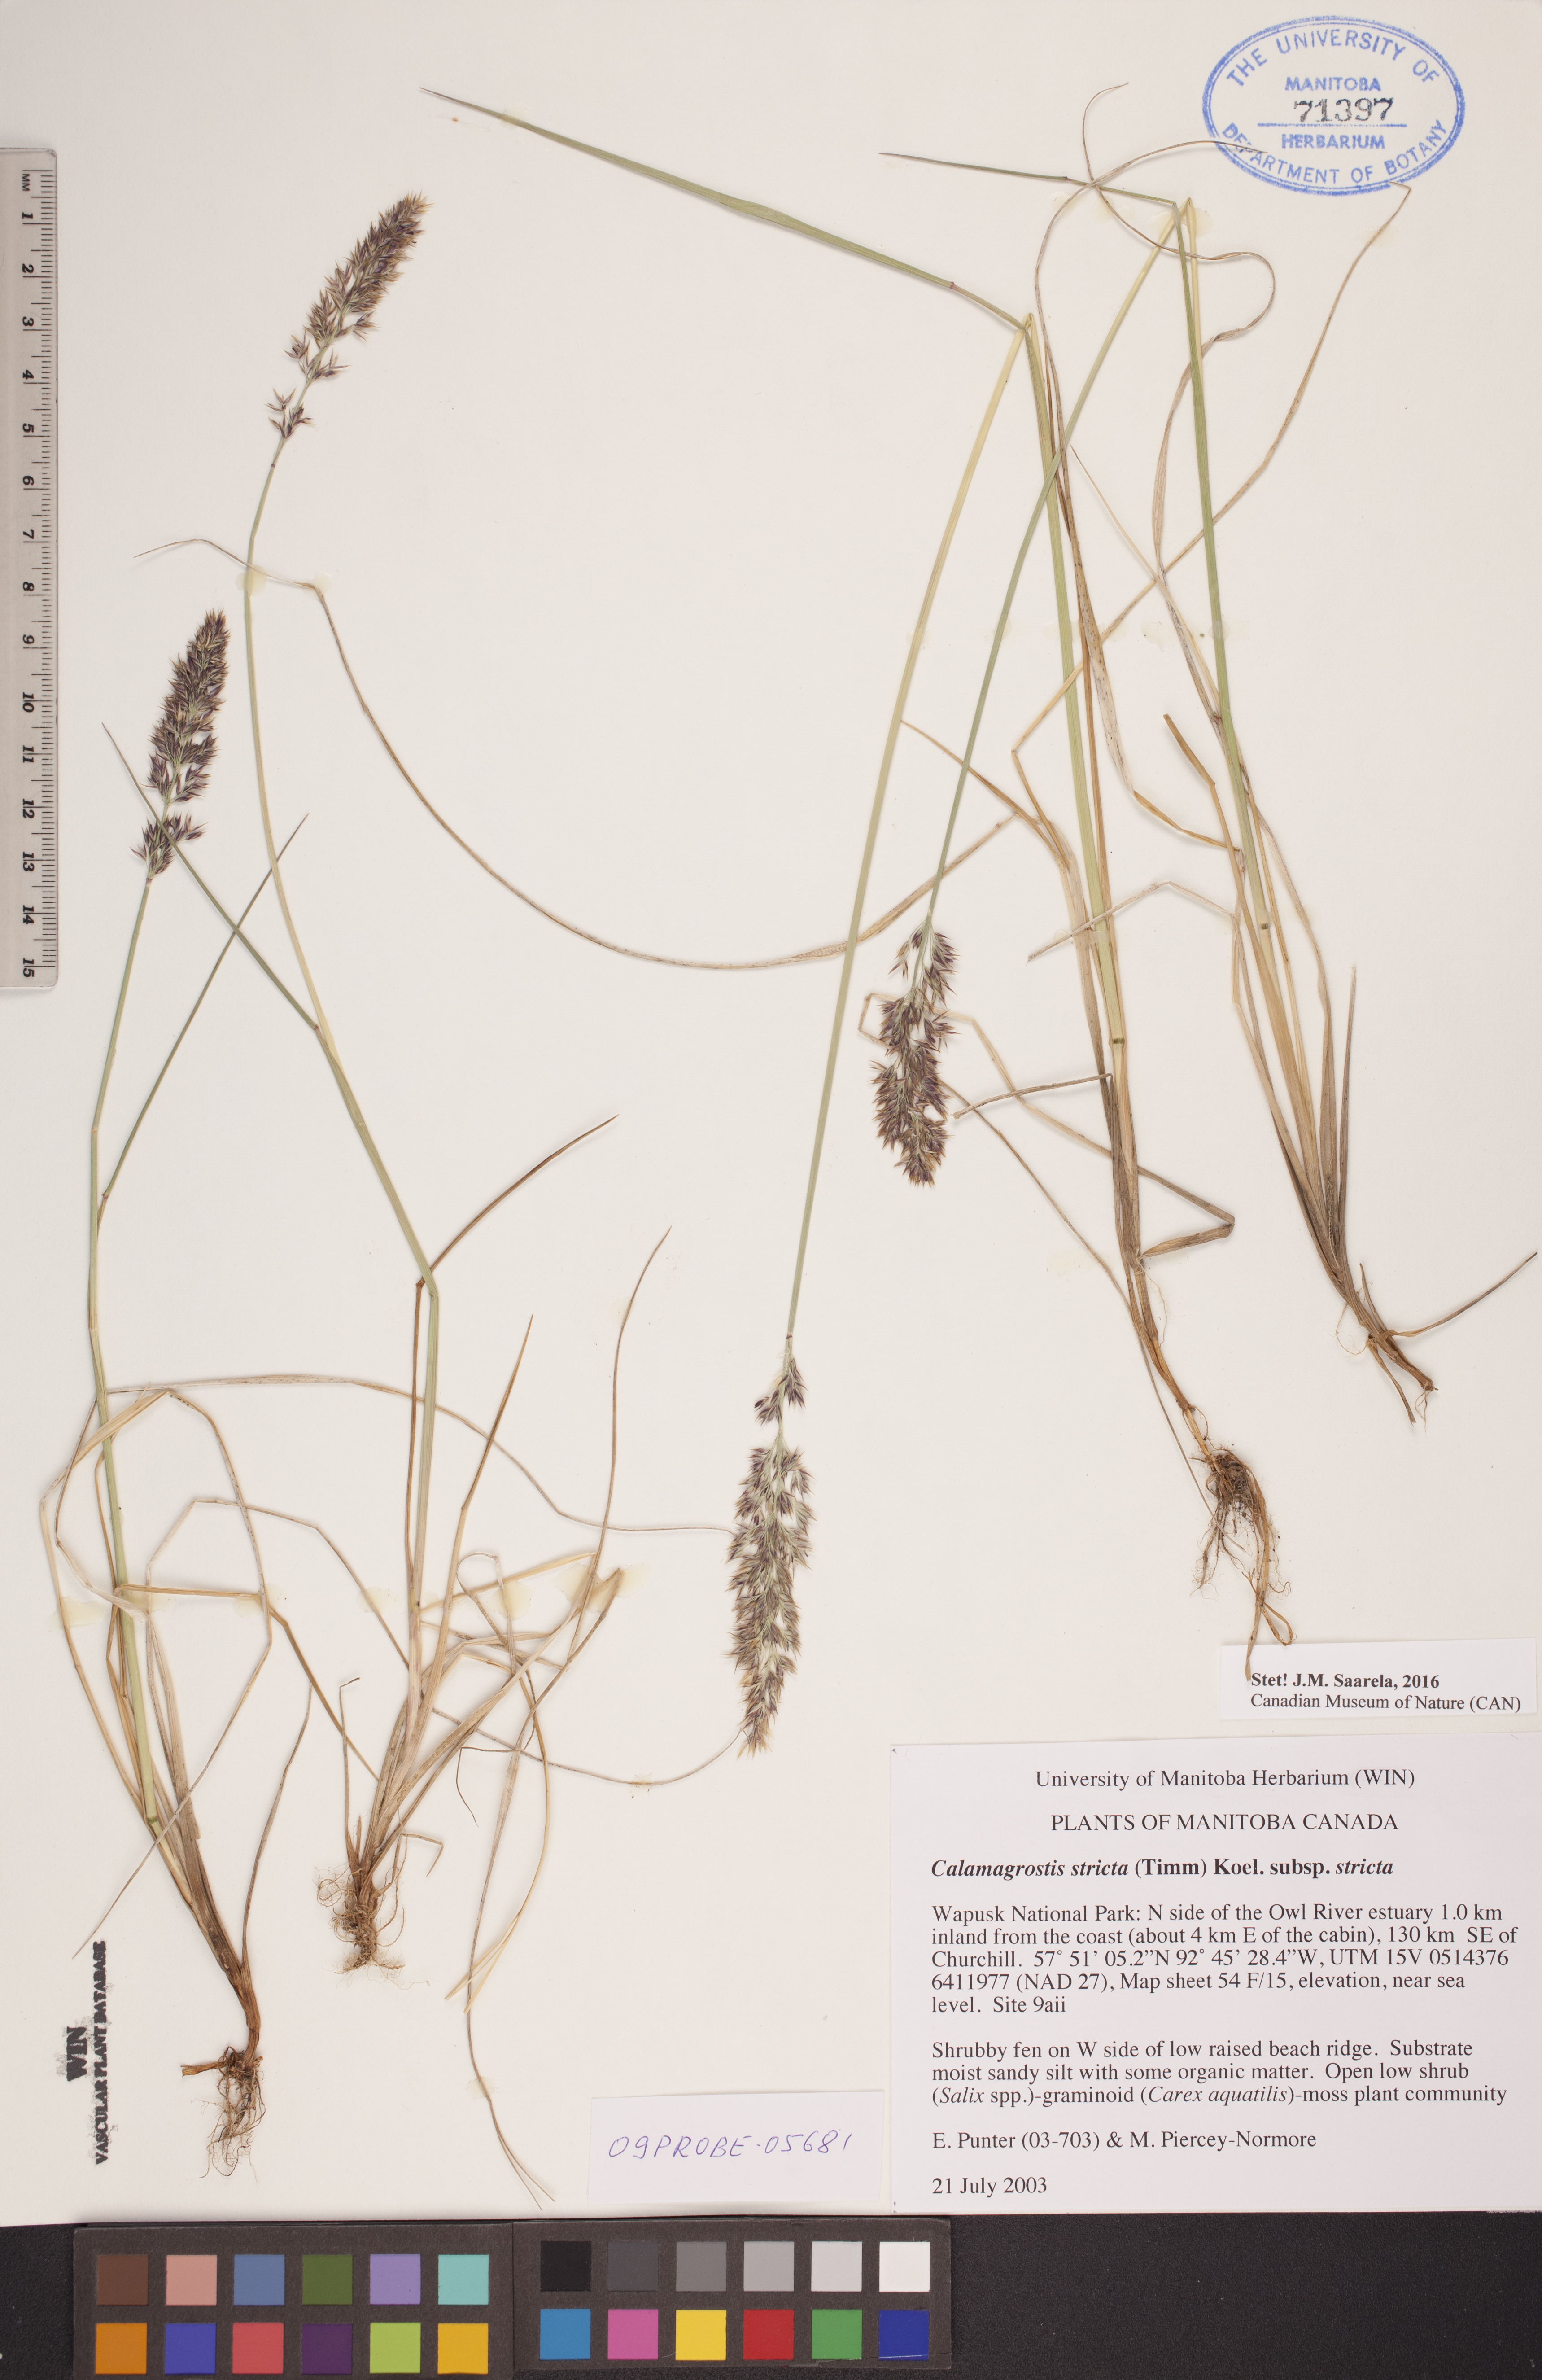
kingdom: Plantae
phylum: Tracheophyta
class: Liliopsida
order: Poales
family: Poaceae
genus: Calamagrostis
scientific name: Calamagrostis stricta
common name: Narrow small-reed
